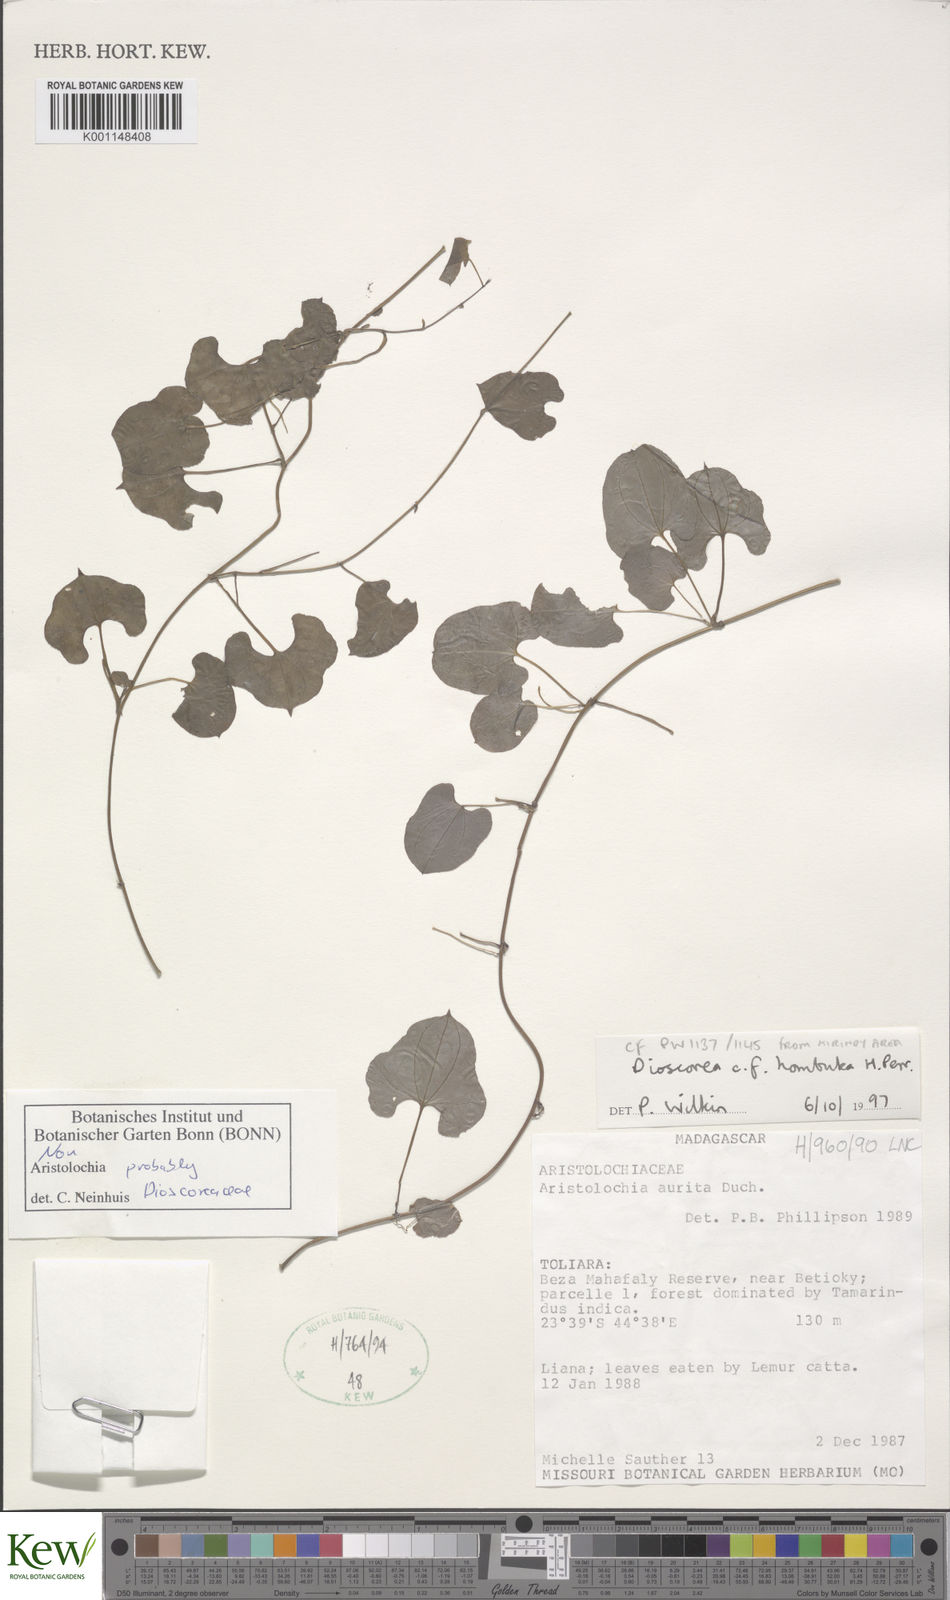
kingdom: Plantae
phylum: Tracheophyta
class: Liliopsida
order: Dioscoreales
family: Dioscoreaceae
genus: Dioscorea
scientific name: Dioscorea hombuka
